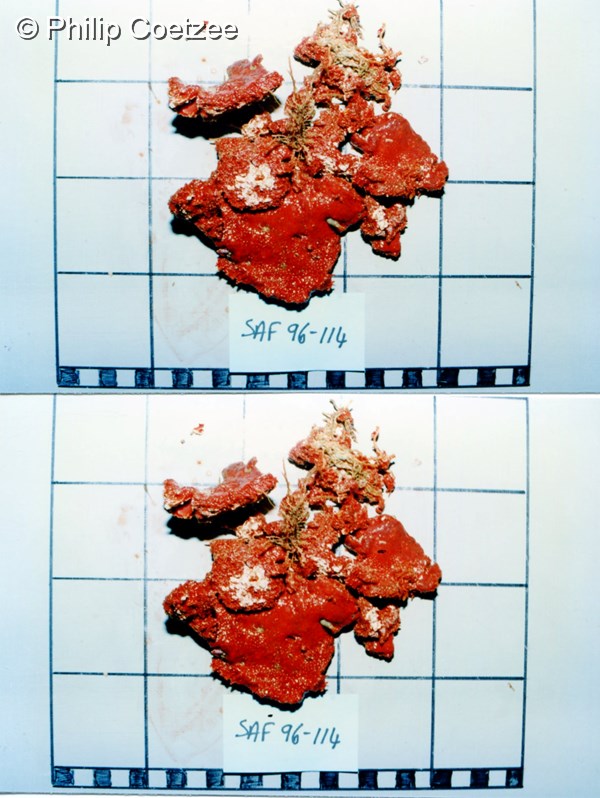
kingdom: Animalia
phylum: Porifera
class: Demospongiae
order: Poecilosclerida
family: Microcionidae
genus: Clathria
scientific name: Clathria striata
